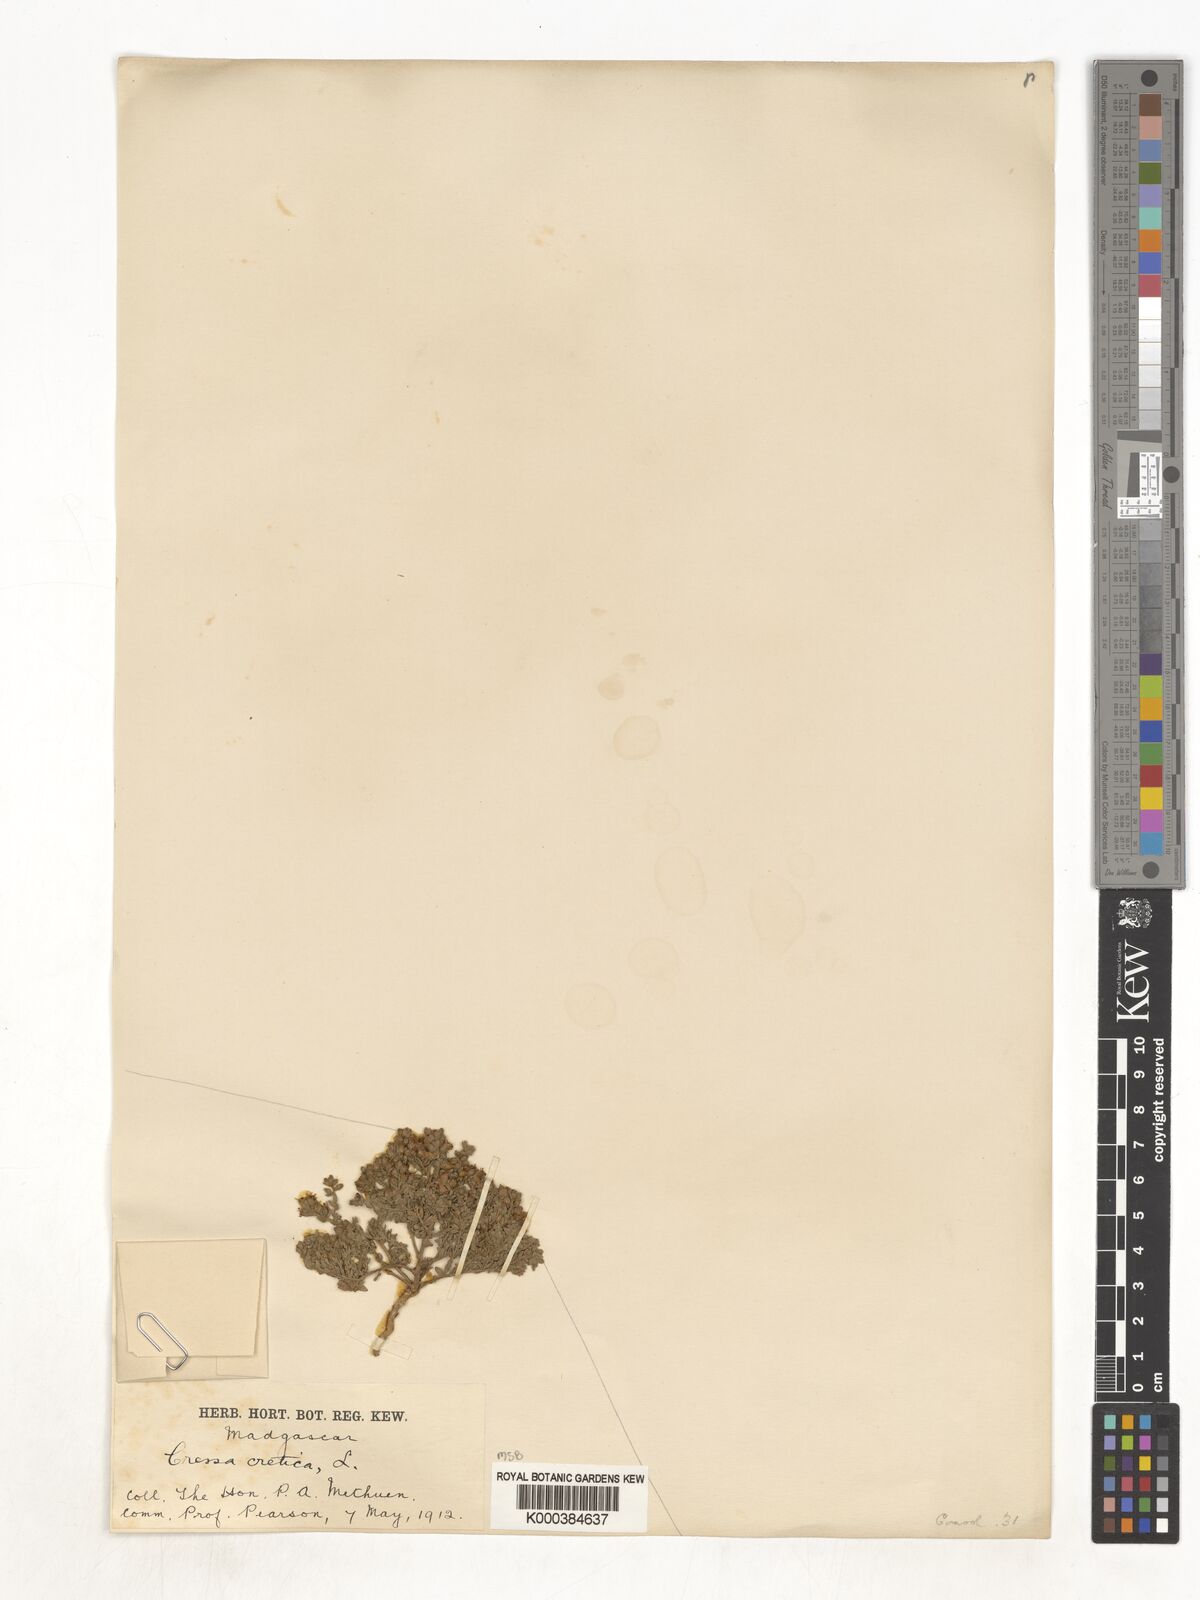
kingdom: Plantae
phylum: Tracheophyta
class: Magnoliopsida
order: Solanales
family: Convolvulaceae
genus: Cressa
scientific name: Cressa cretica
